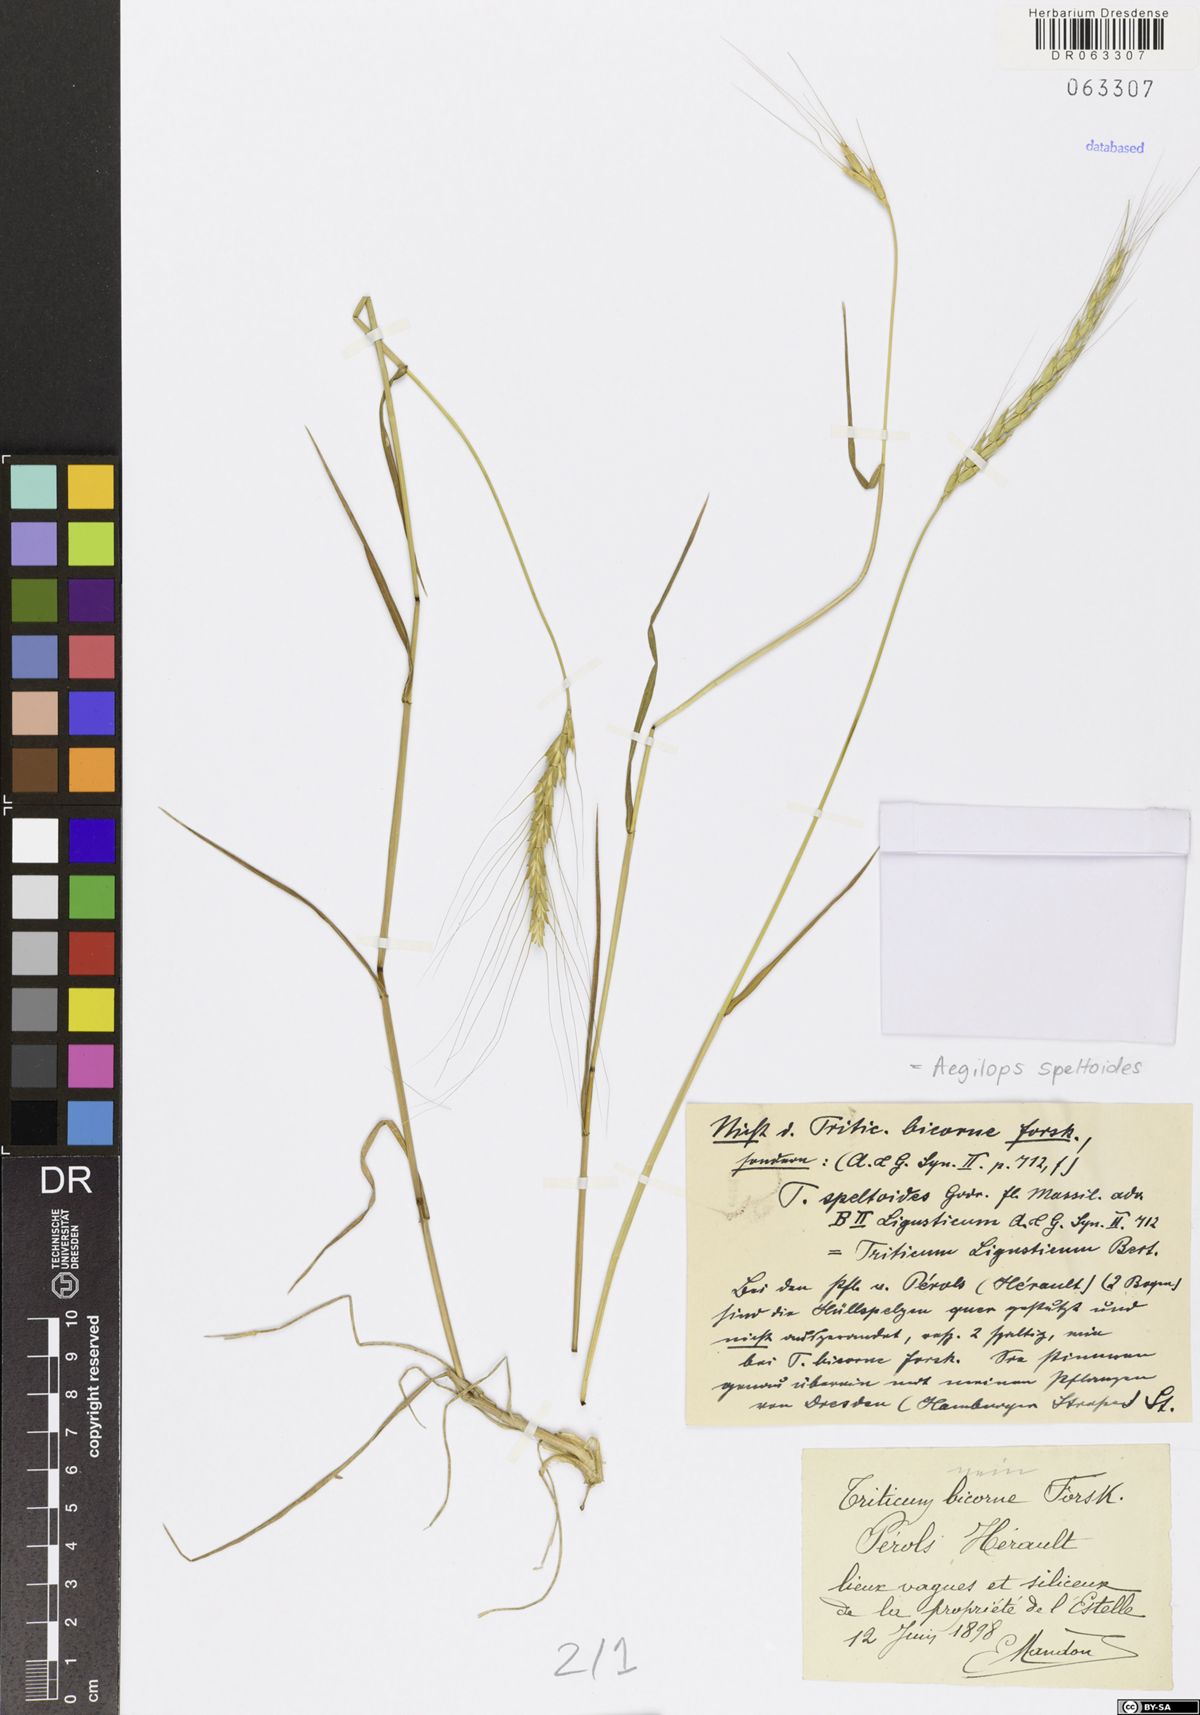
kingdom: Plantae
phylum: Tracheophyta
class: Liliopsida
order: Poales
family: Poaceae
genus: Aegilops
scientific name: Aegilops speltoides
